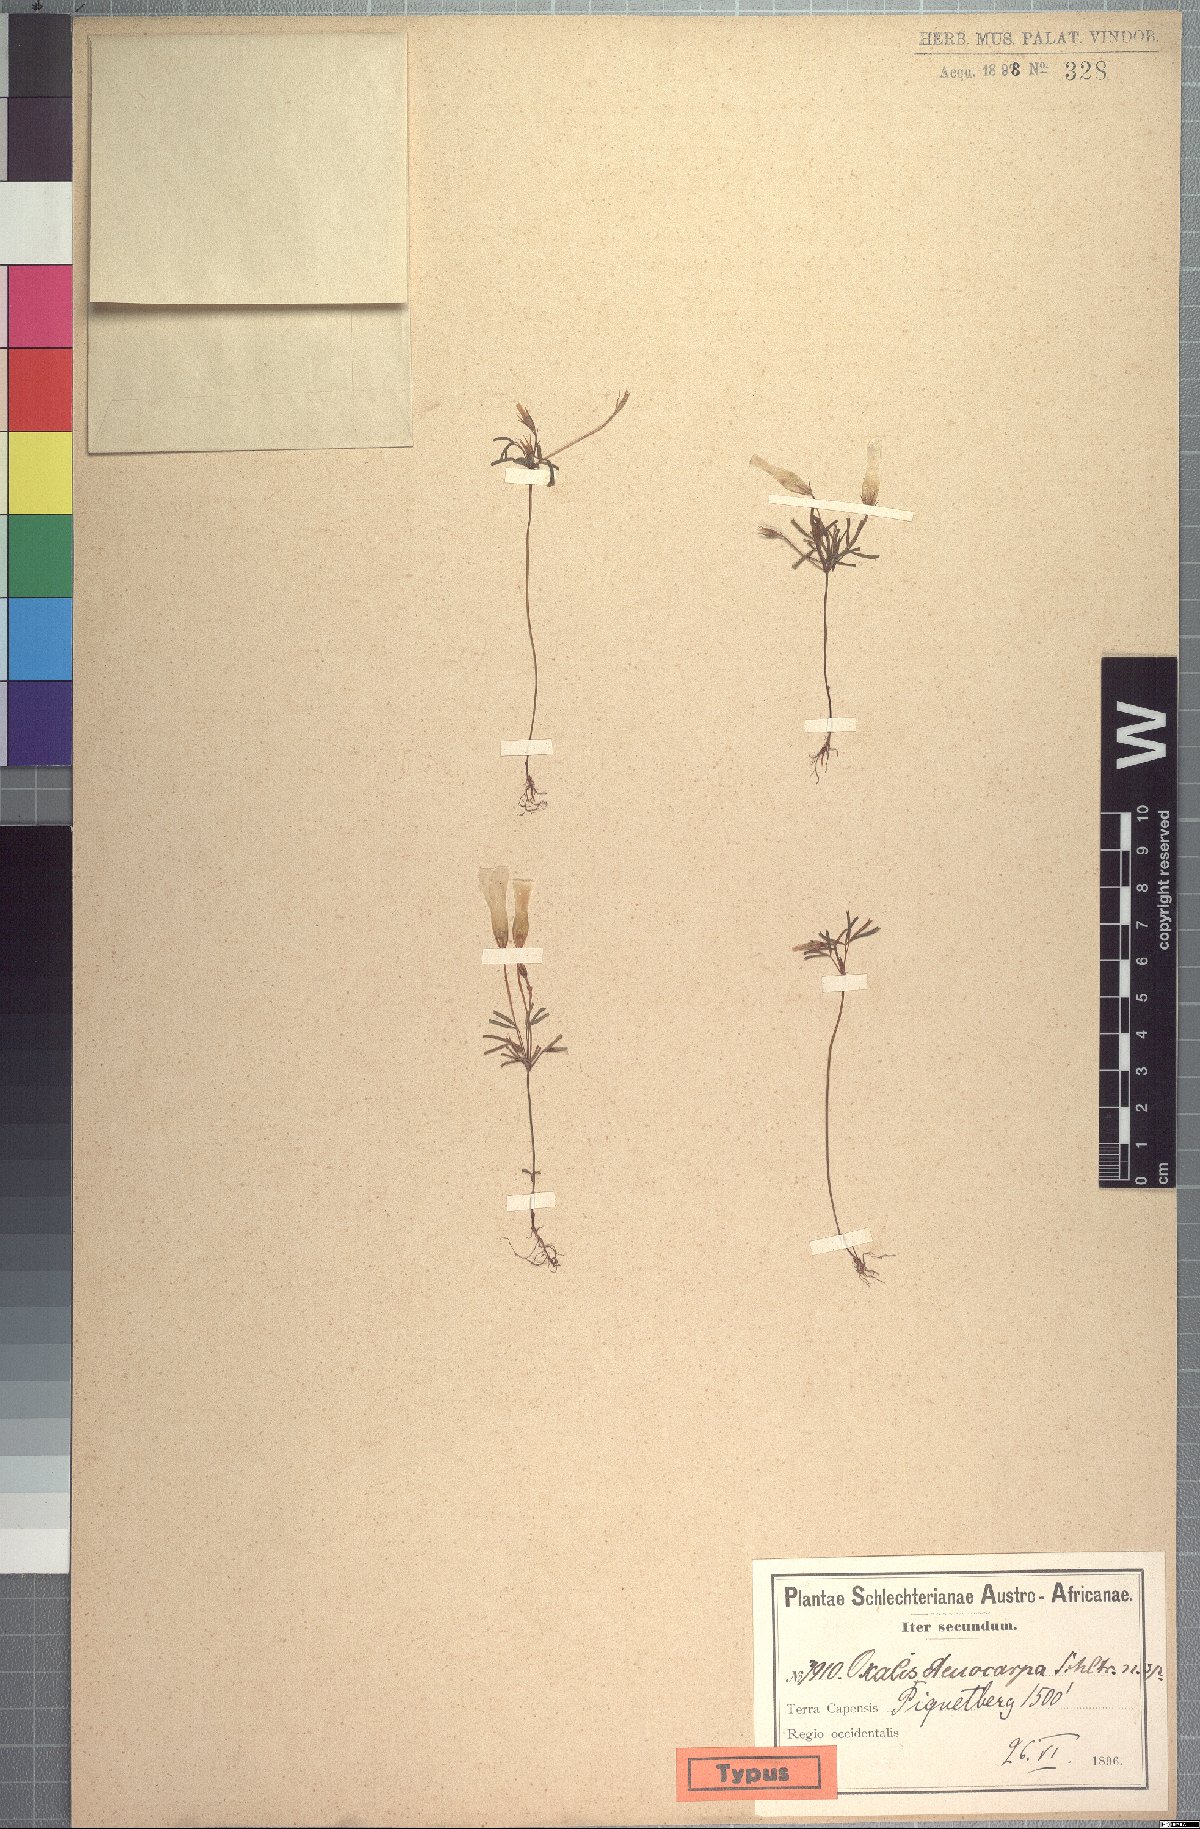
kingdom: Plantae
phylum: Tracheophyta
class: Magnoliopsida
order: Oxalidales
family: Oxalidaceae
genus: Oxalis
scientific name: Oxalis glabra
